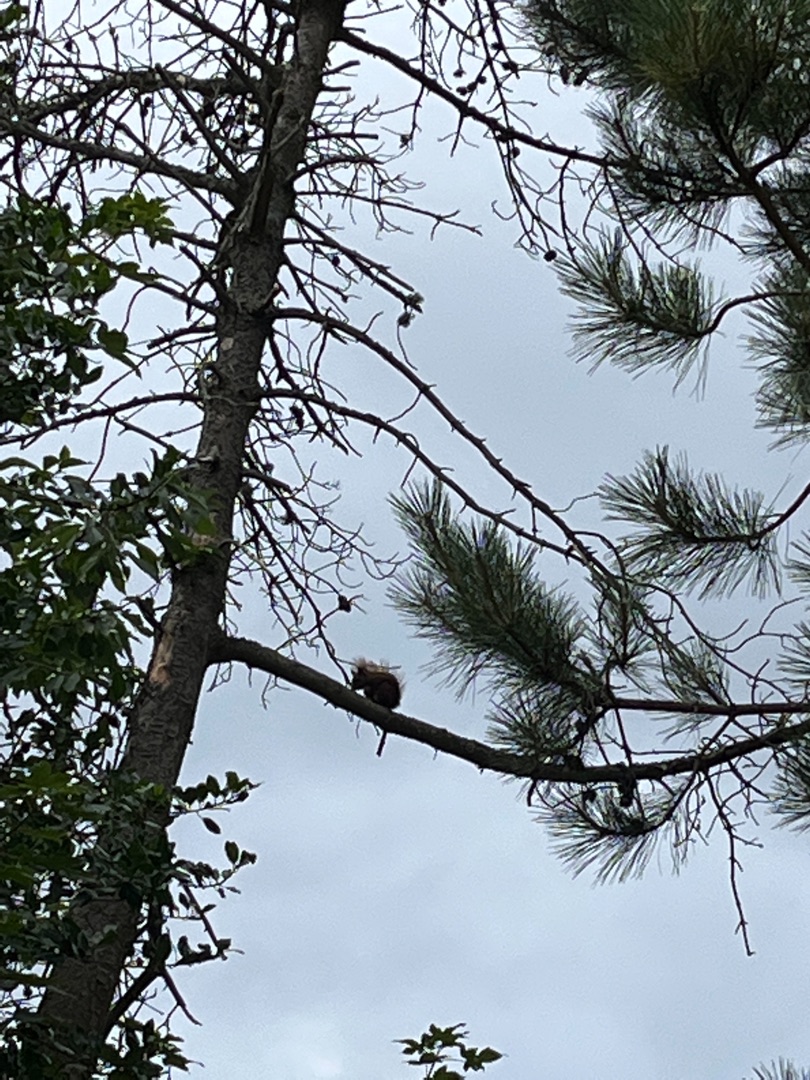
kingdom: Animalia
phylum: Chordata
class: Mammalia
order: Rodentia
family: Sciuridae
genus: Sciurus
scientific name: Sciurus vulgaris
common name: Egern
